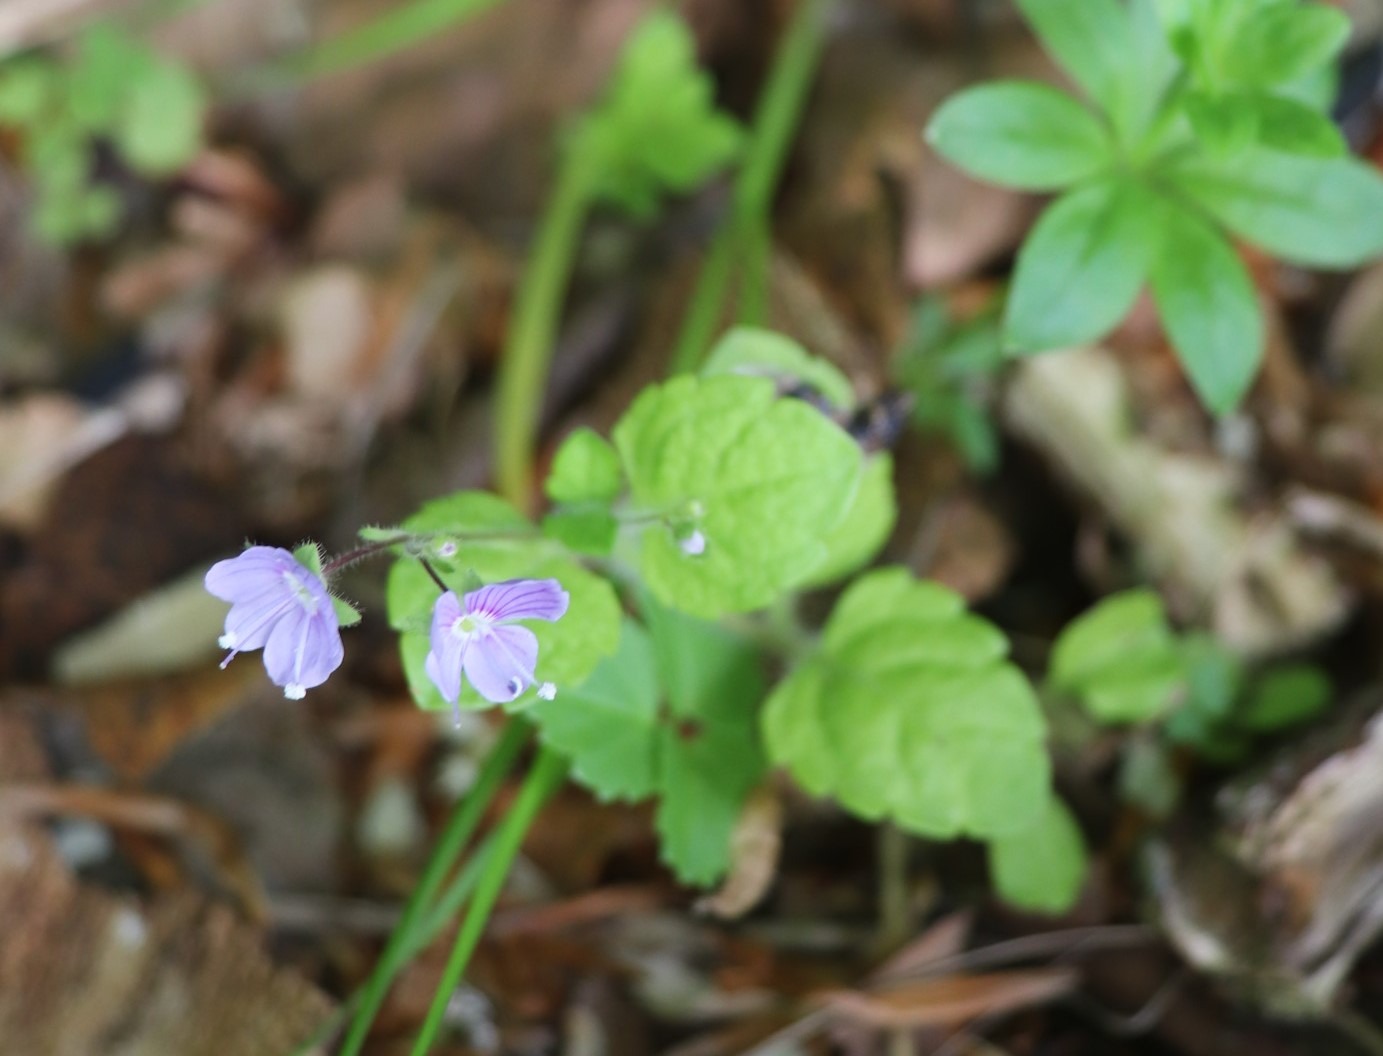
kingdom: Plantae
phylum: Tracheophyta
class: Magnoliopsida
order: Lamiales
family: Plantaginaceae
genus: Veronica
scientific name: Veronica montana
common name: Bjerg-ærenpris
